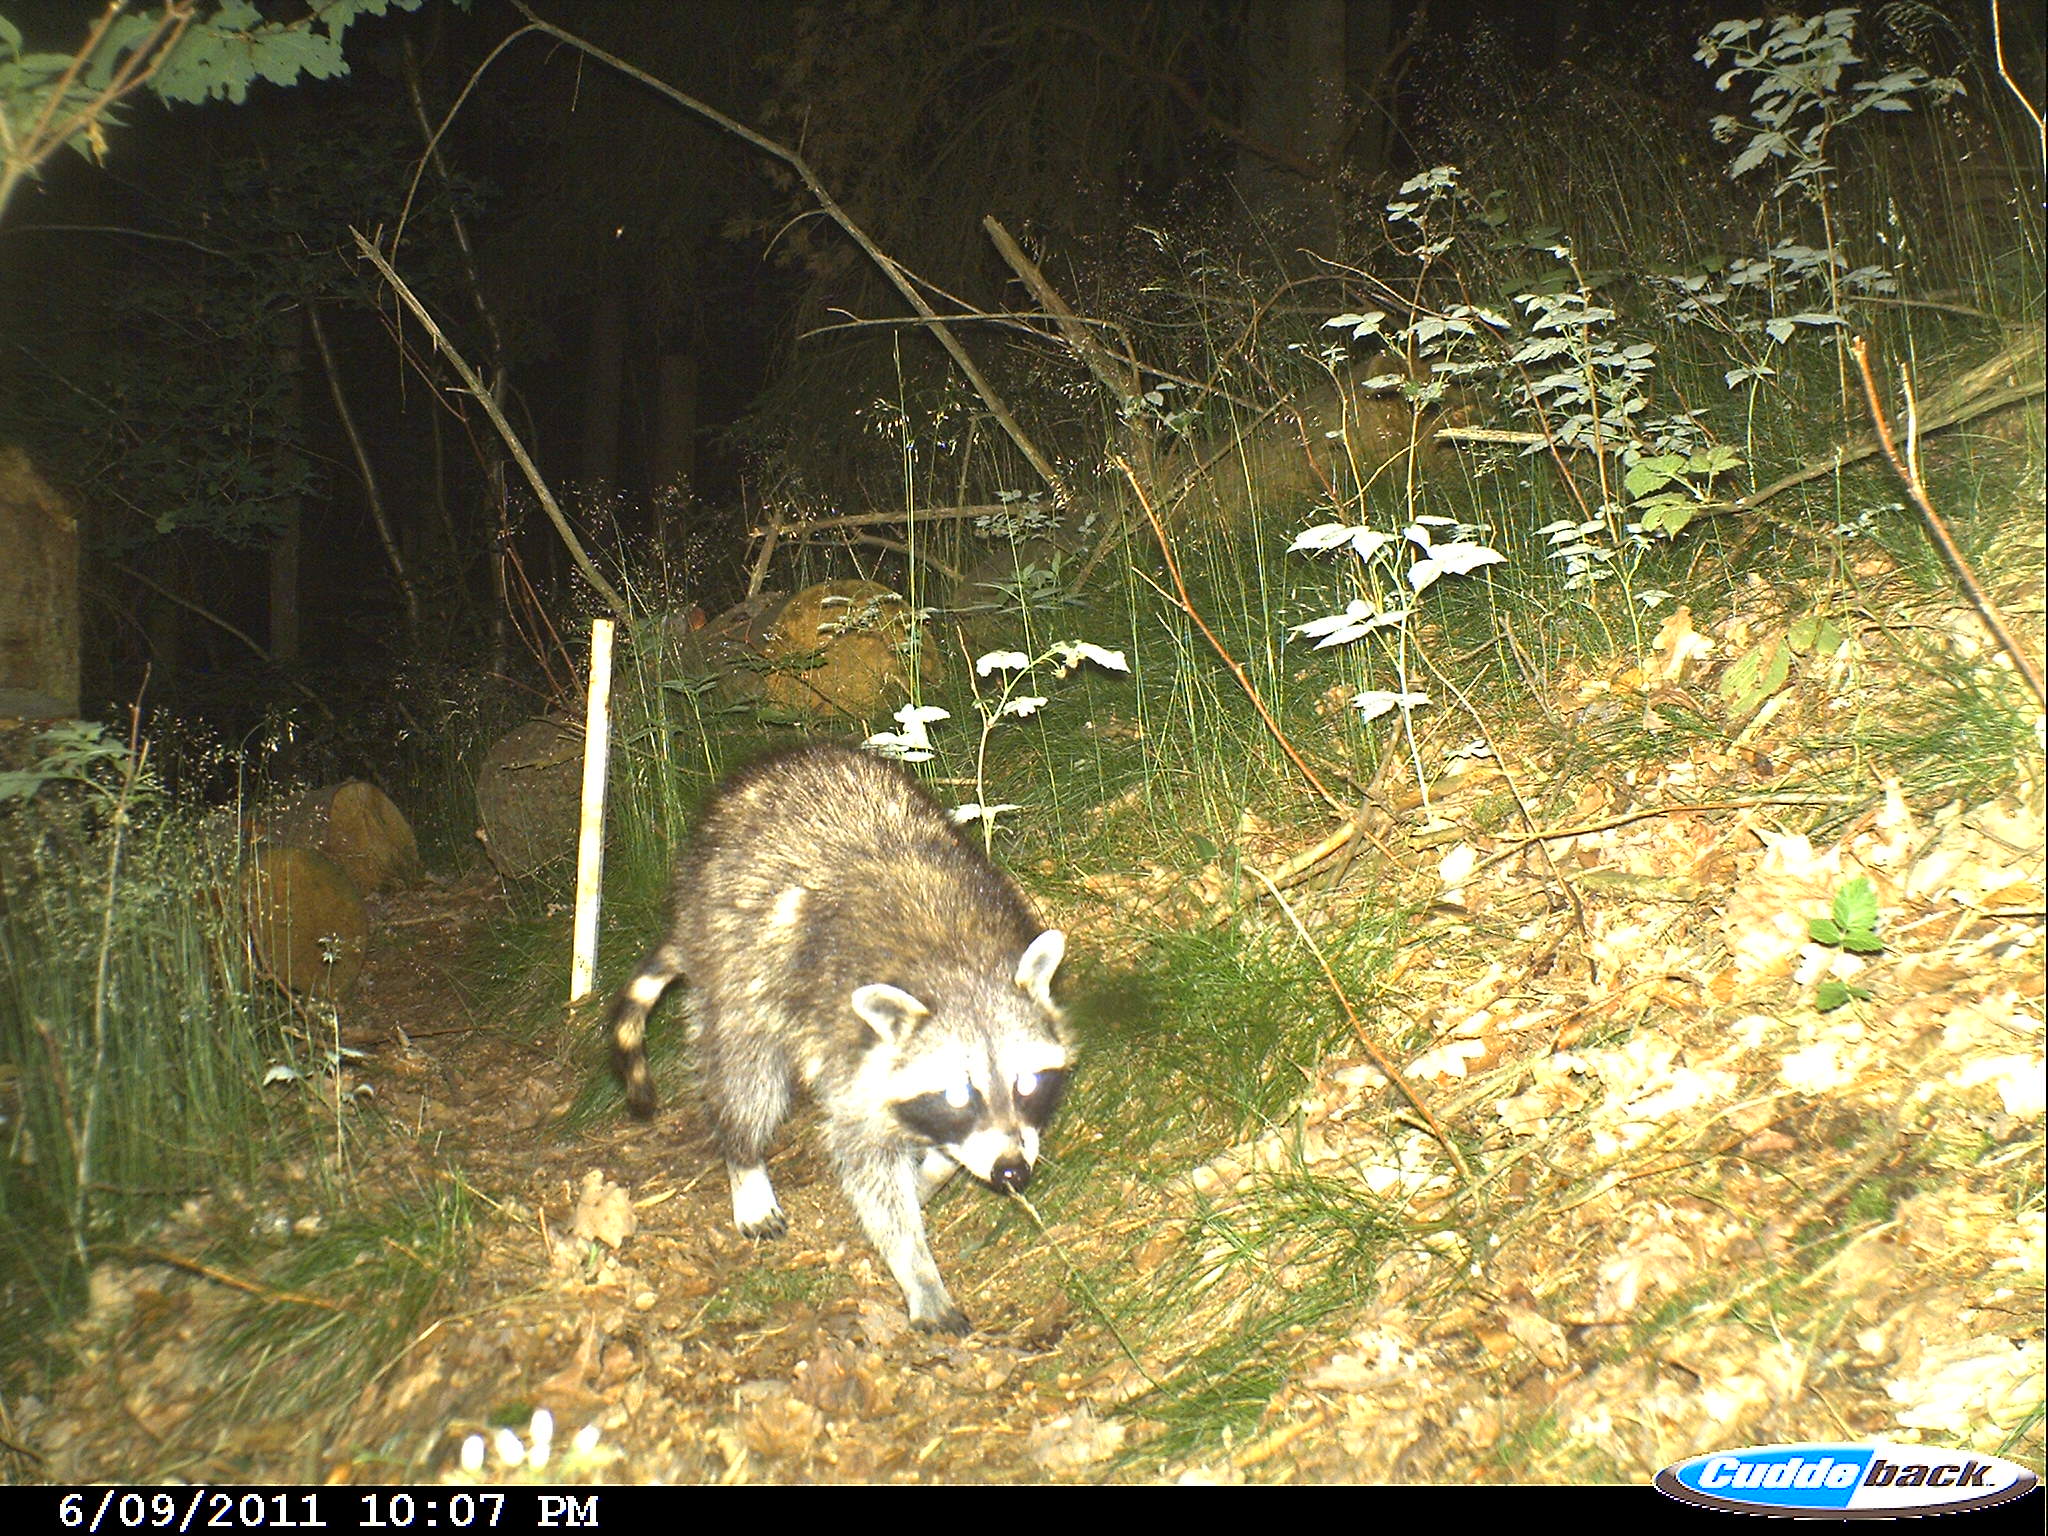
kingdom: Animalia
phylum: Chordata
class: Mammalia
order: Carnivora
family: Procyonidae
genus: Procyon
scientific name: Procyon lotor
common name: Raccoon
